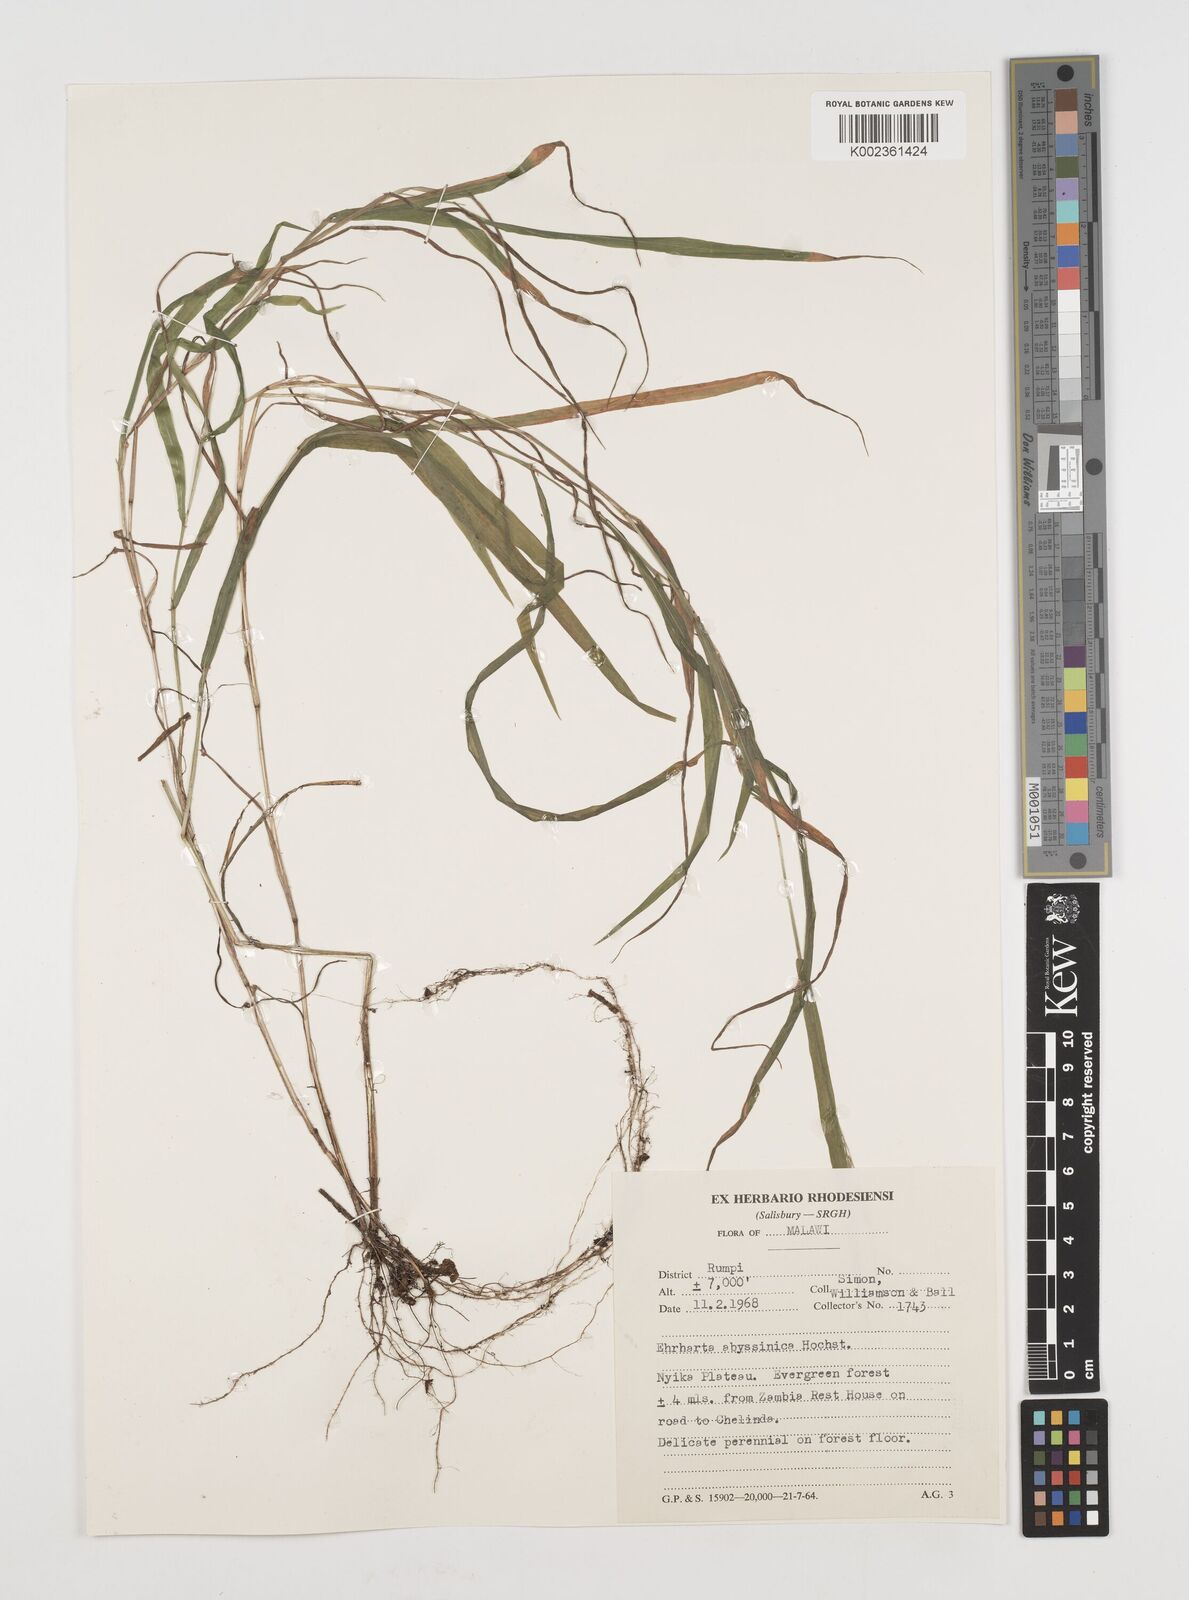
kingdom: Plantae
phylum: Tracheophyta
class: Liliopsida
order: Poales
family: Poaceae
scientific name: Poaceae
